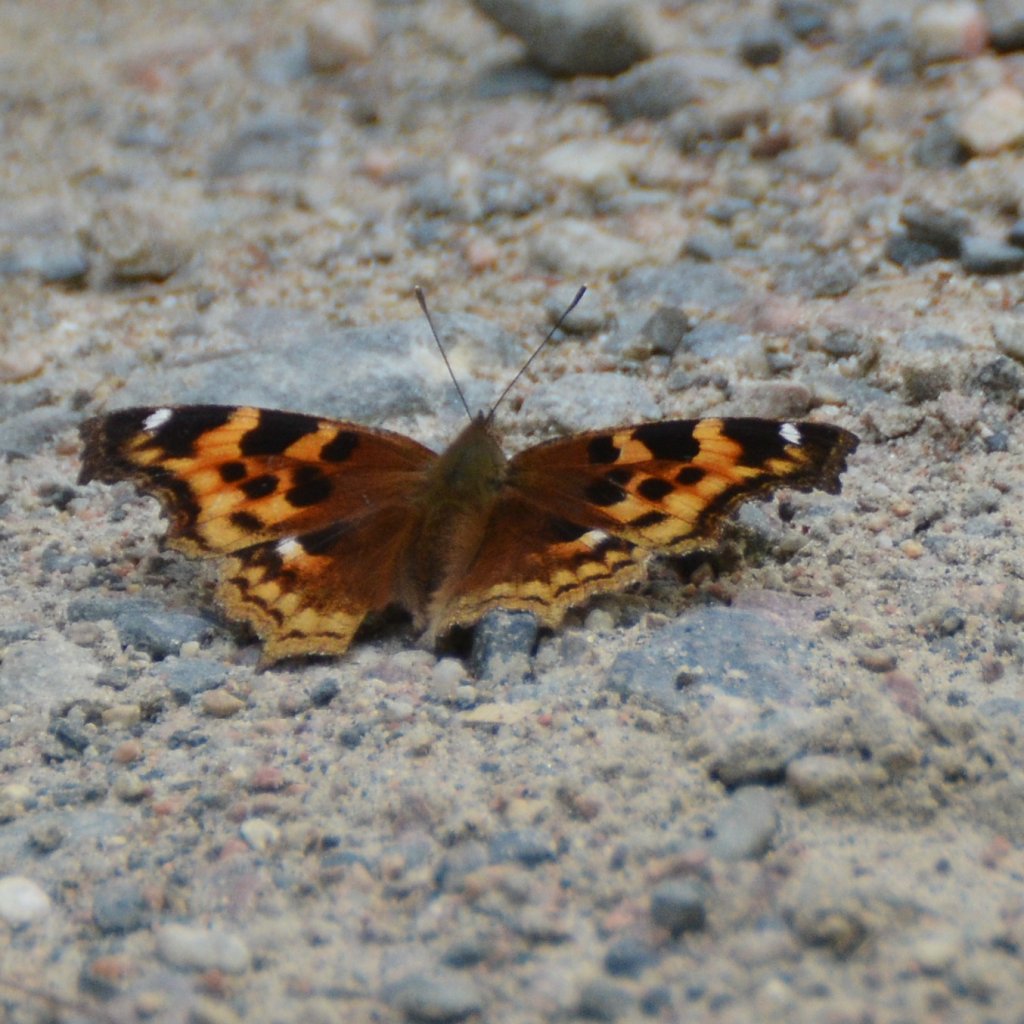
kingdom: Animalia
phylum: Arthropoda
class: Insecta
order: Lepidoptera
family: Nymphalidae
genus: Polygonia
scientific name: Polygonia vaualbum
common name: Compton Tortoiseshell
